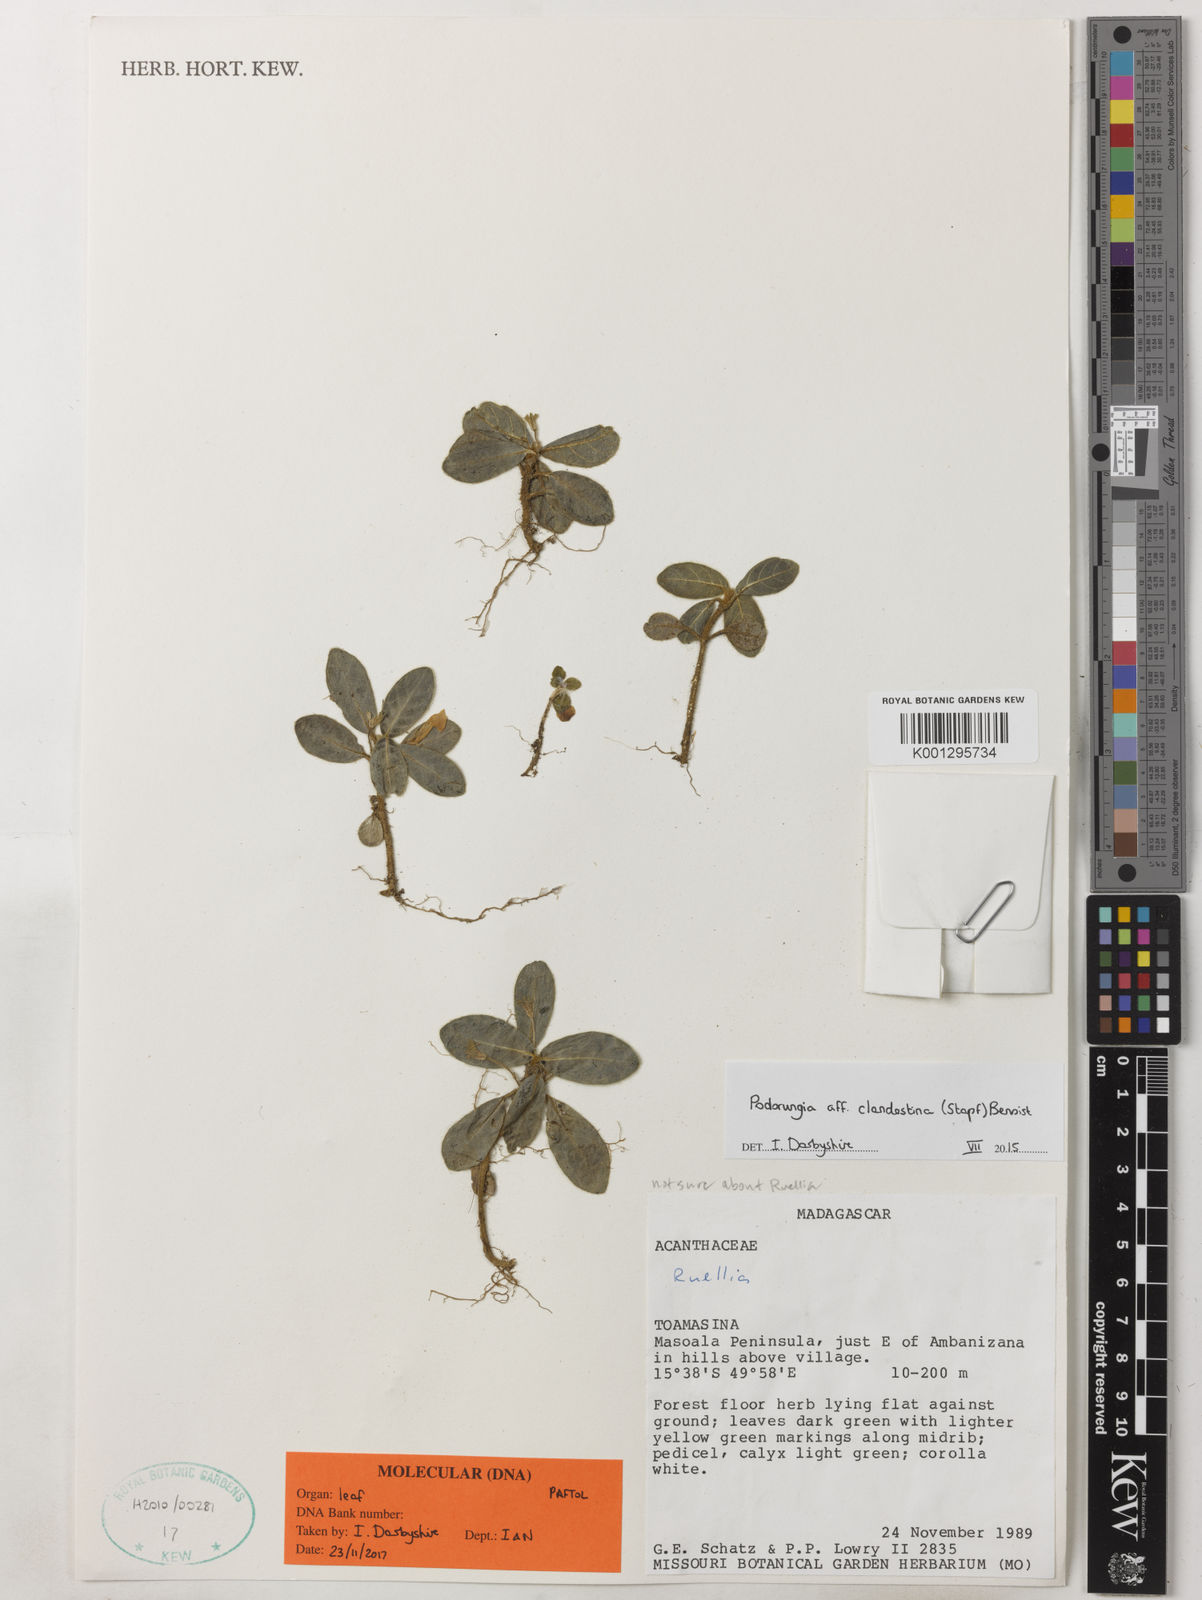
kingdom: Plantae
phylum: Tracheophyta
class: Magnoliopsida
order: Lamiales
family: Acanthaceae
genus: Podorungia
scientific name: Podorungia clandestina
